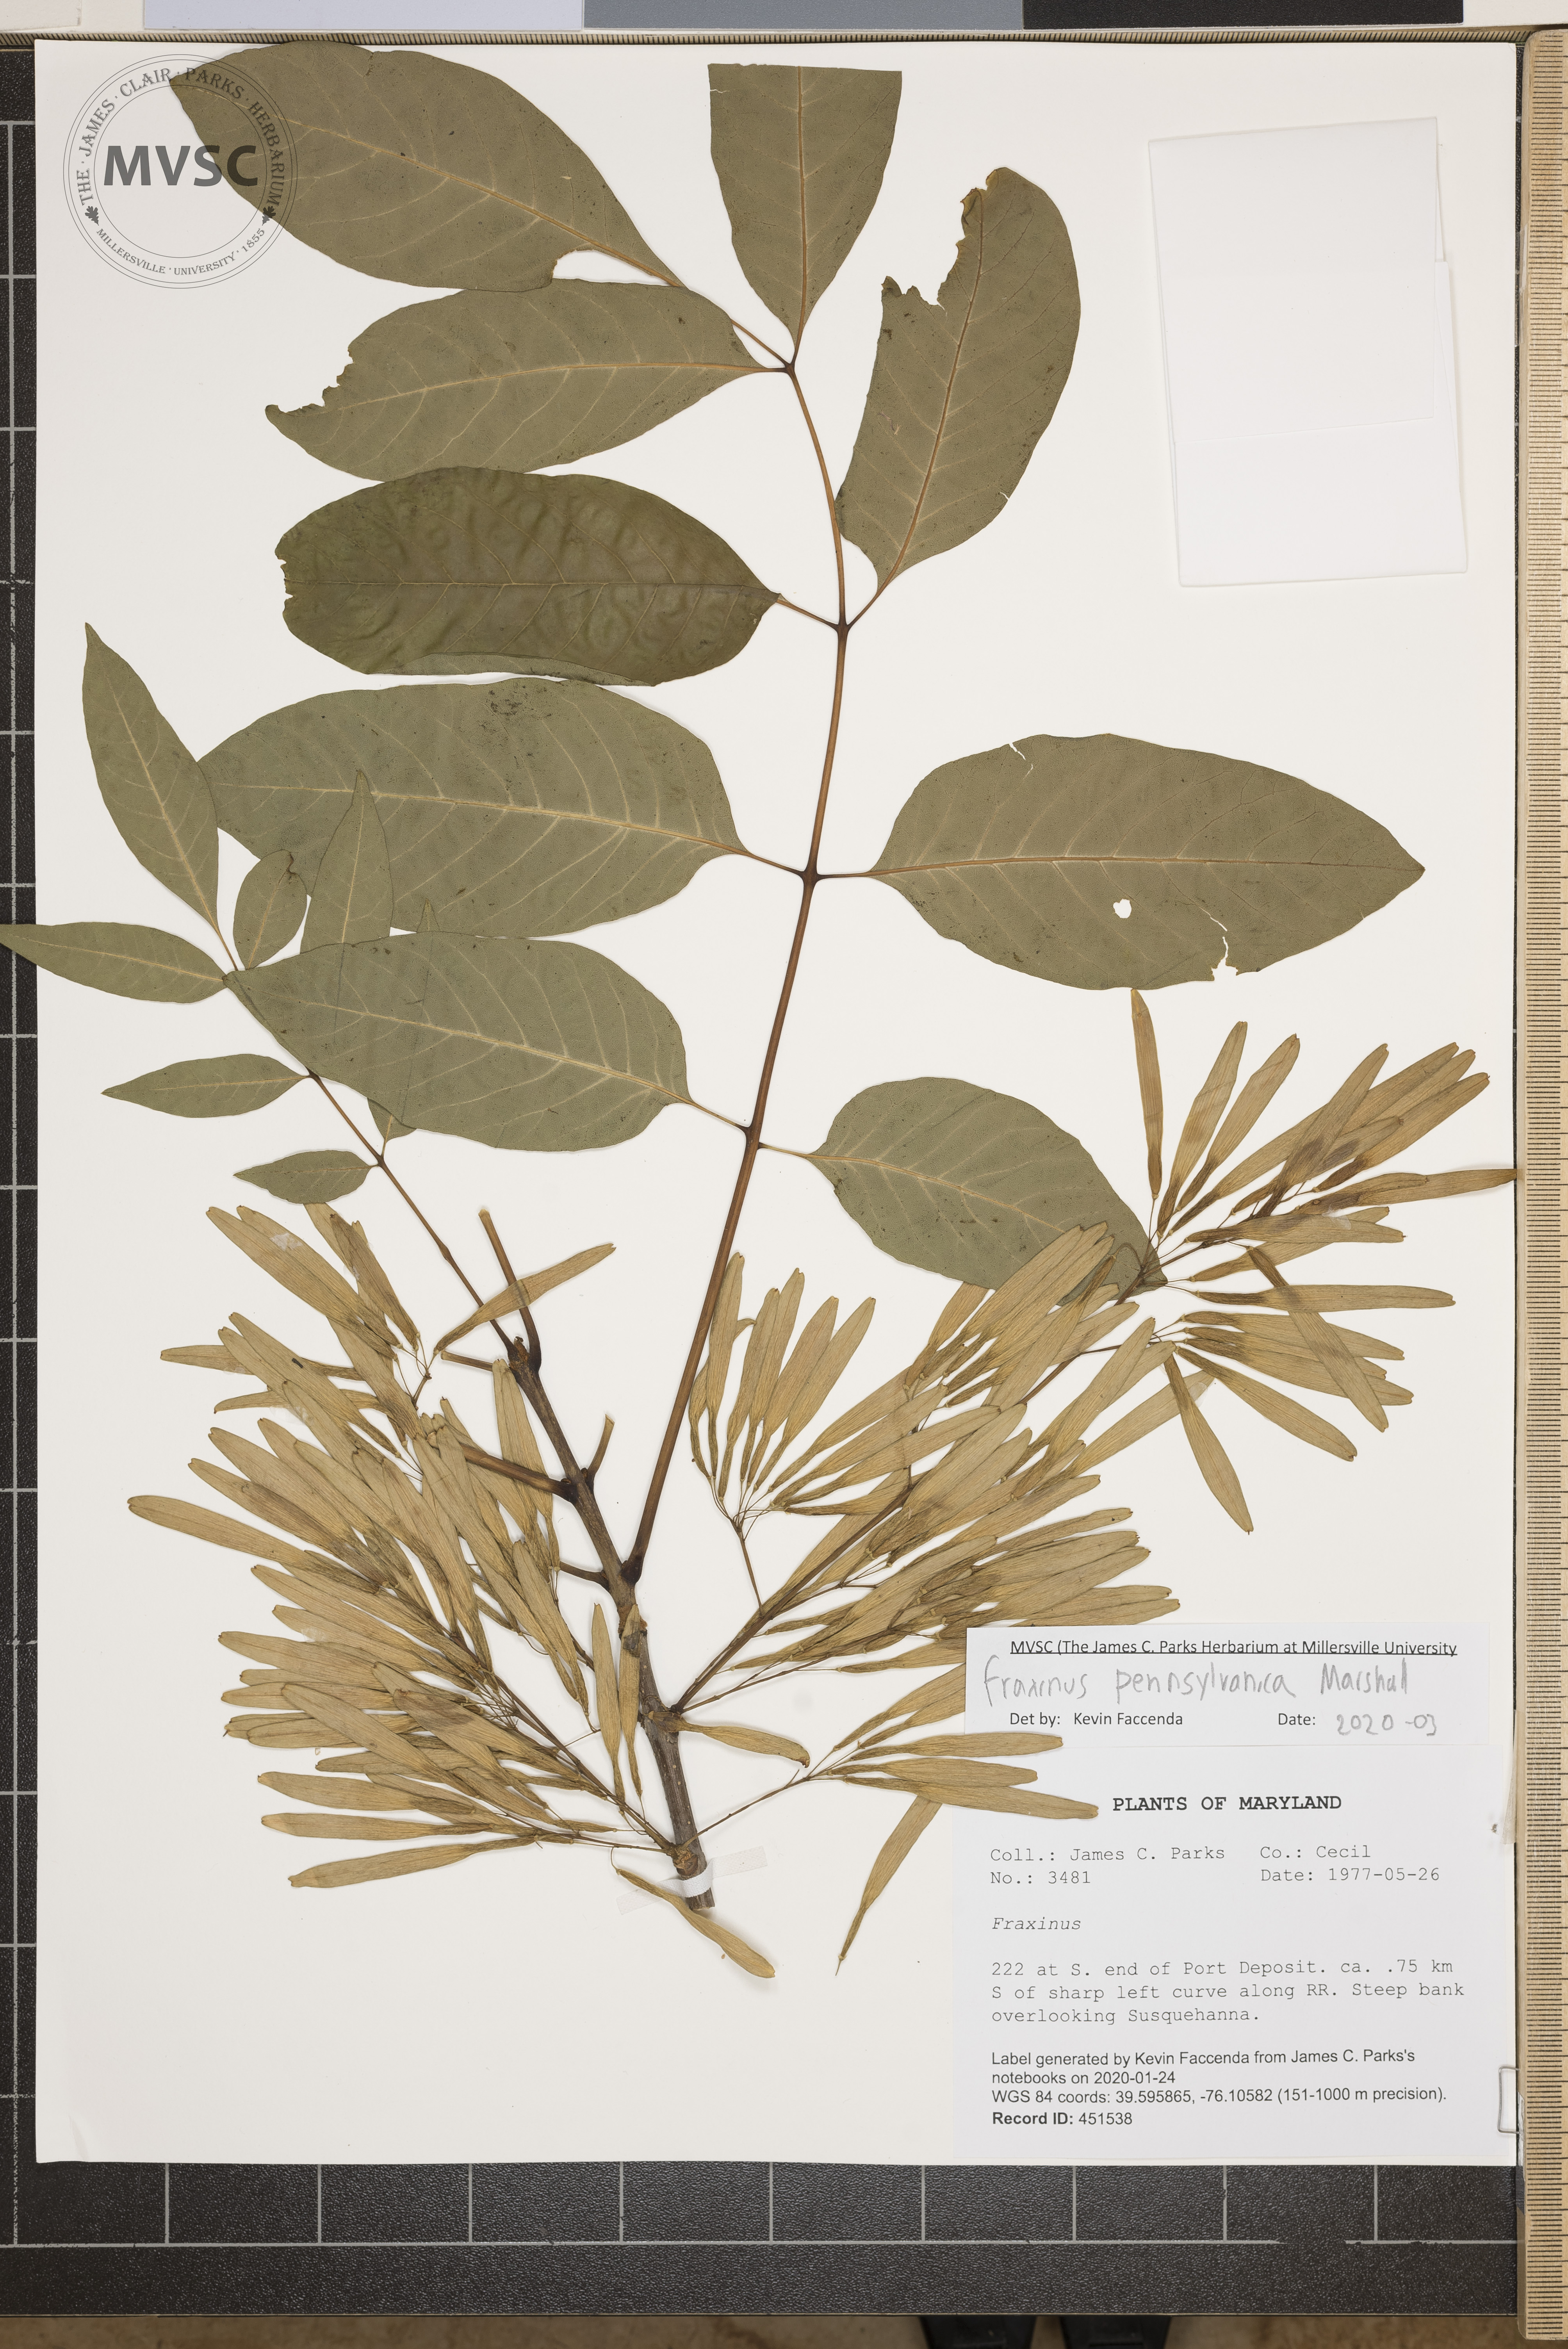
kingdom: Plantae
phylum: Tracheophyta
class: Magnoliopsida
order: Lamiales
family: Oleaceae
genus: Fraxinus
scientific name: Fraxinus pennsylvanica
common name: Green ash
